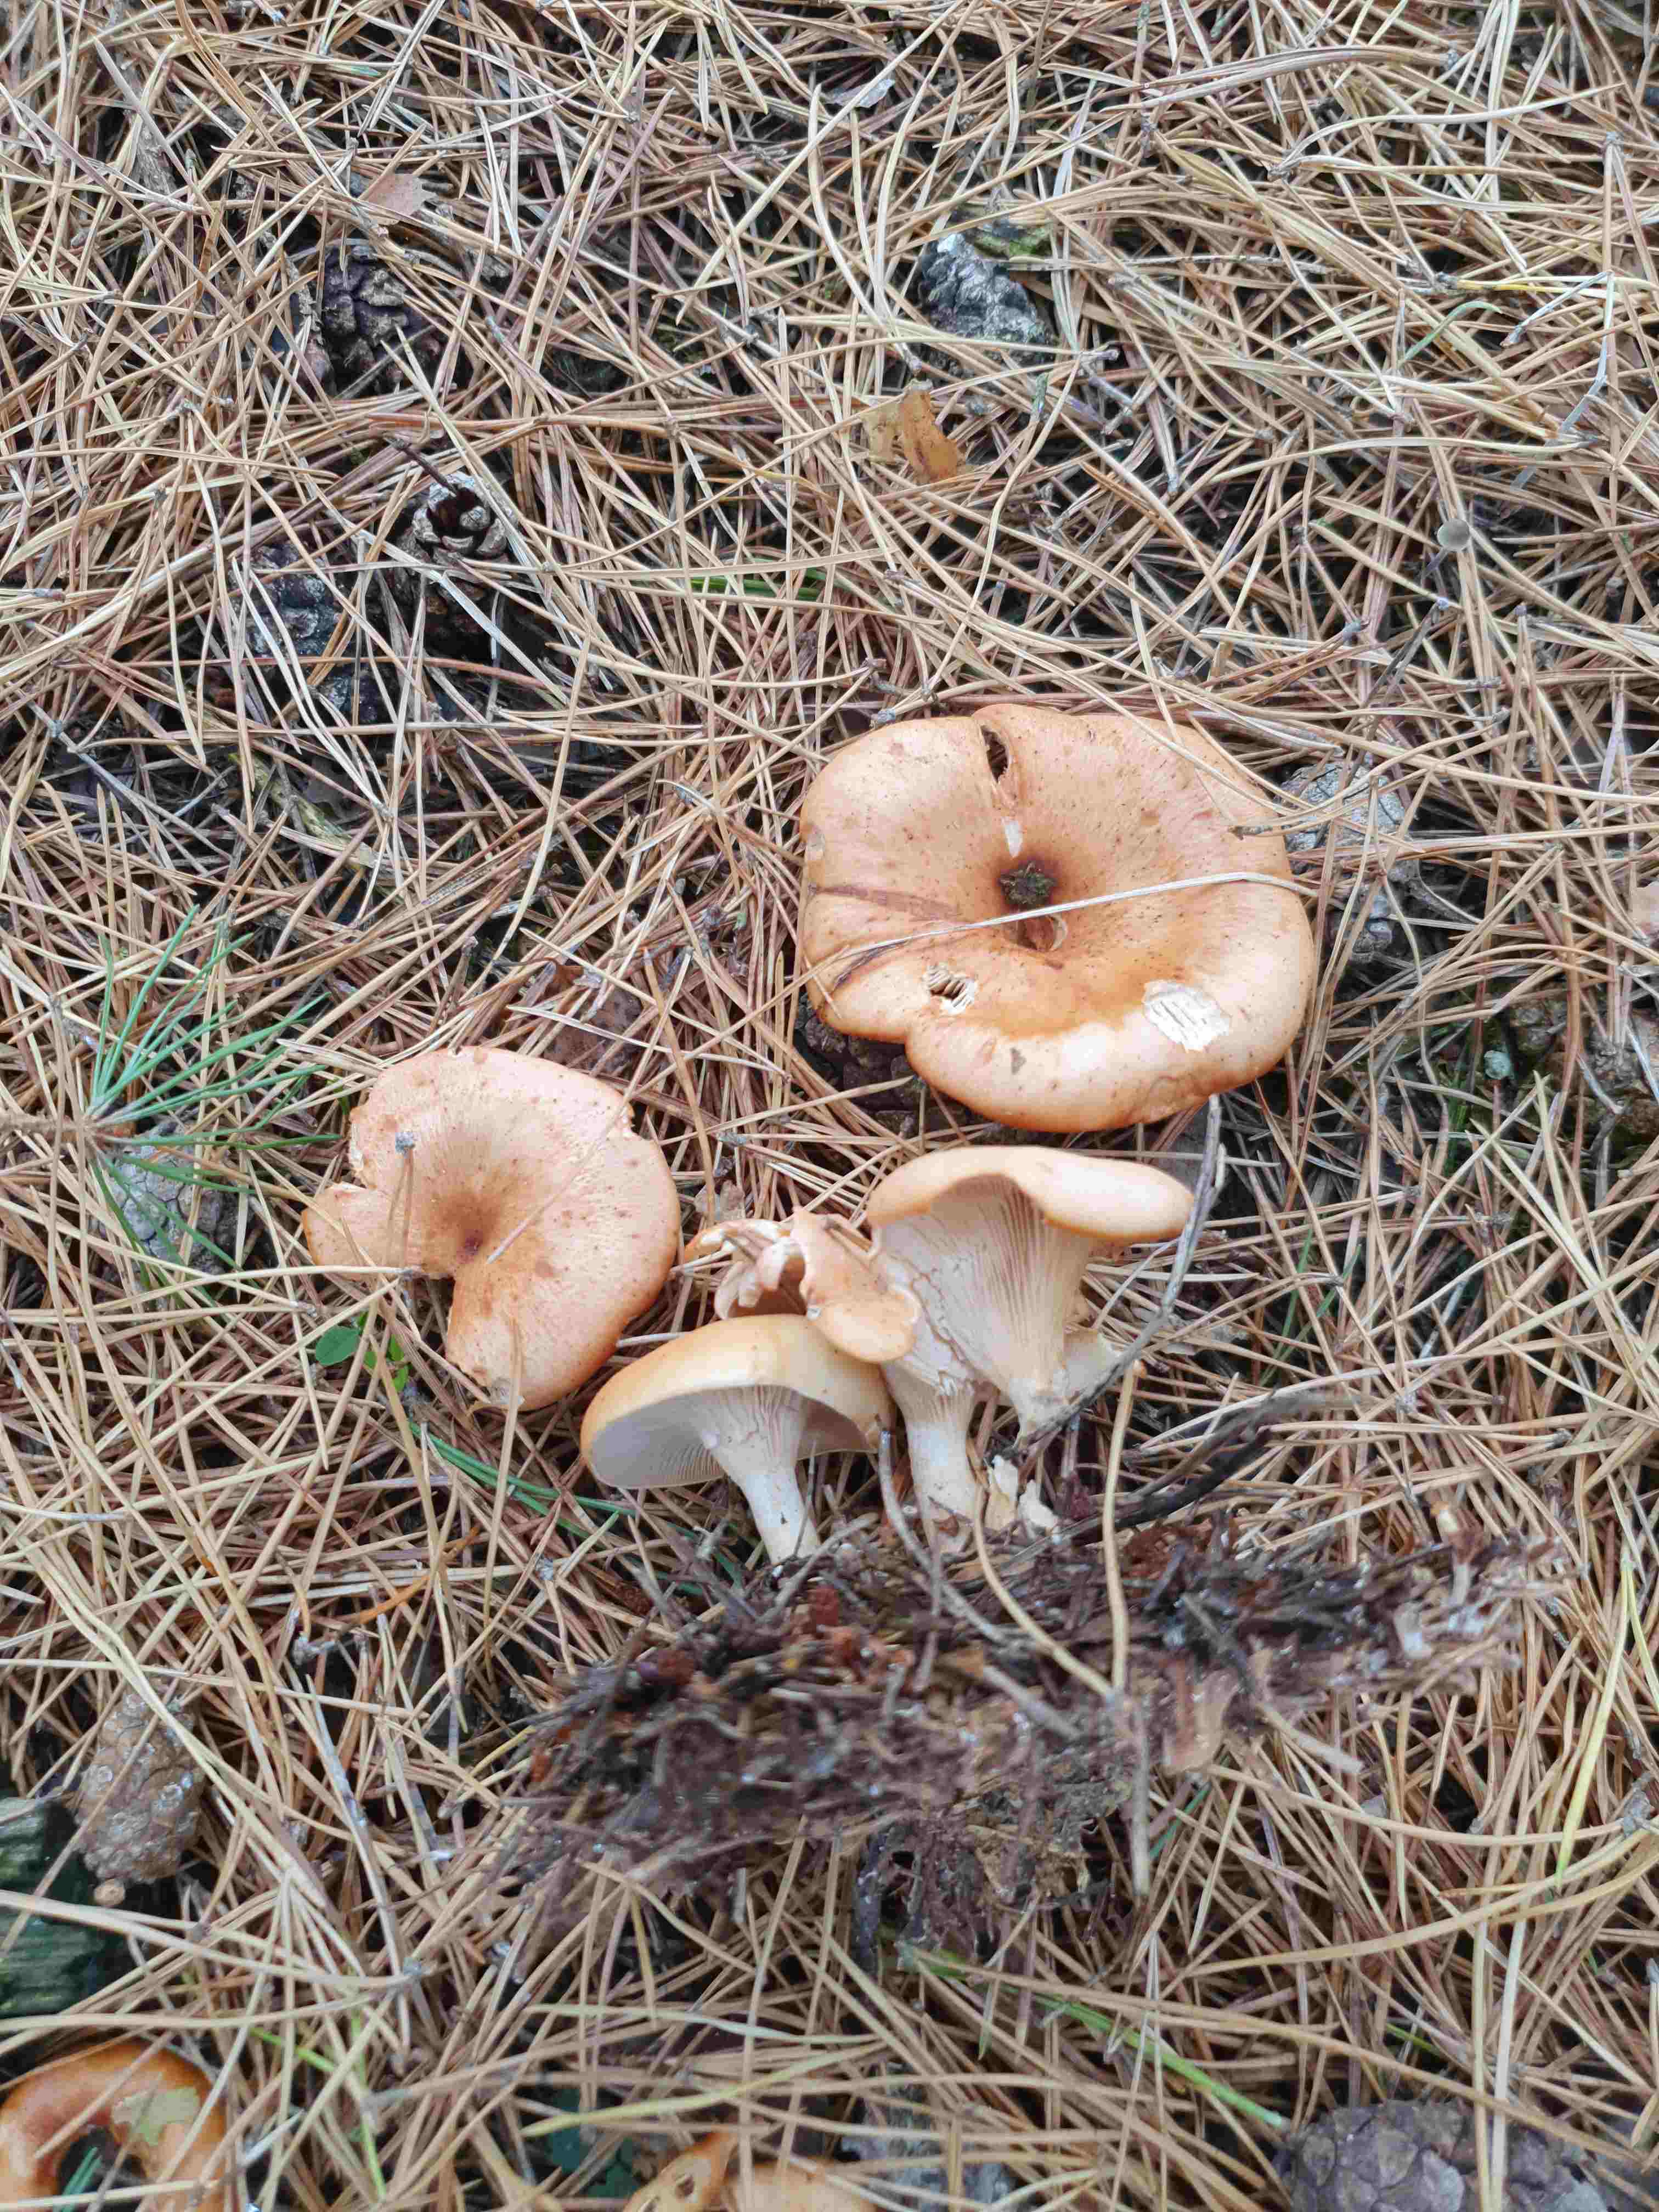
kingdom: Fungi
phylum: Basidiomycota
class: Agaricomycetes
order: Agaricales
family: Tricholomataceae
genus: Paralepista
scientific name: Paralepista flaccida
